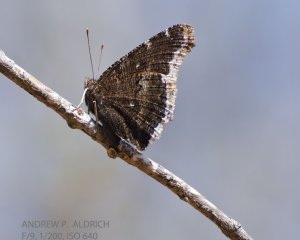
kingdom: Animalia
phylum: Arthropoda
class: Insecta
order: Lepidoptera
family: Nymphalidae
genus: Nymphalis
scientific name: Nymphalis antiopa
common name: Mourning Cloak
